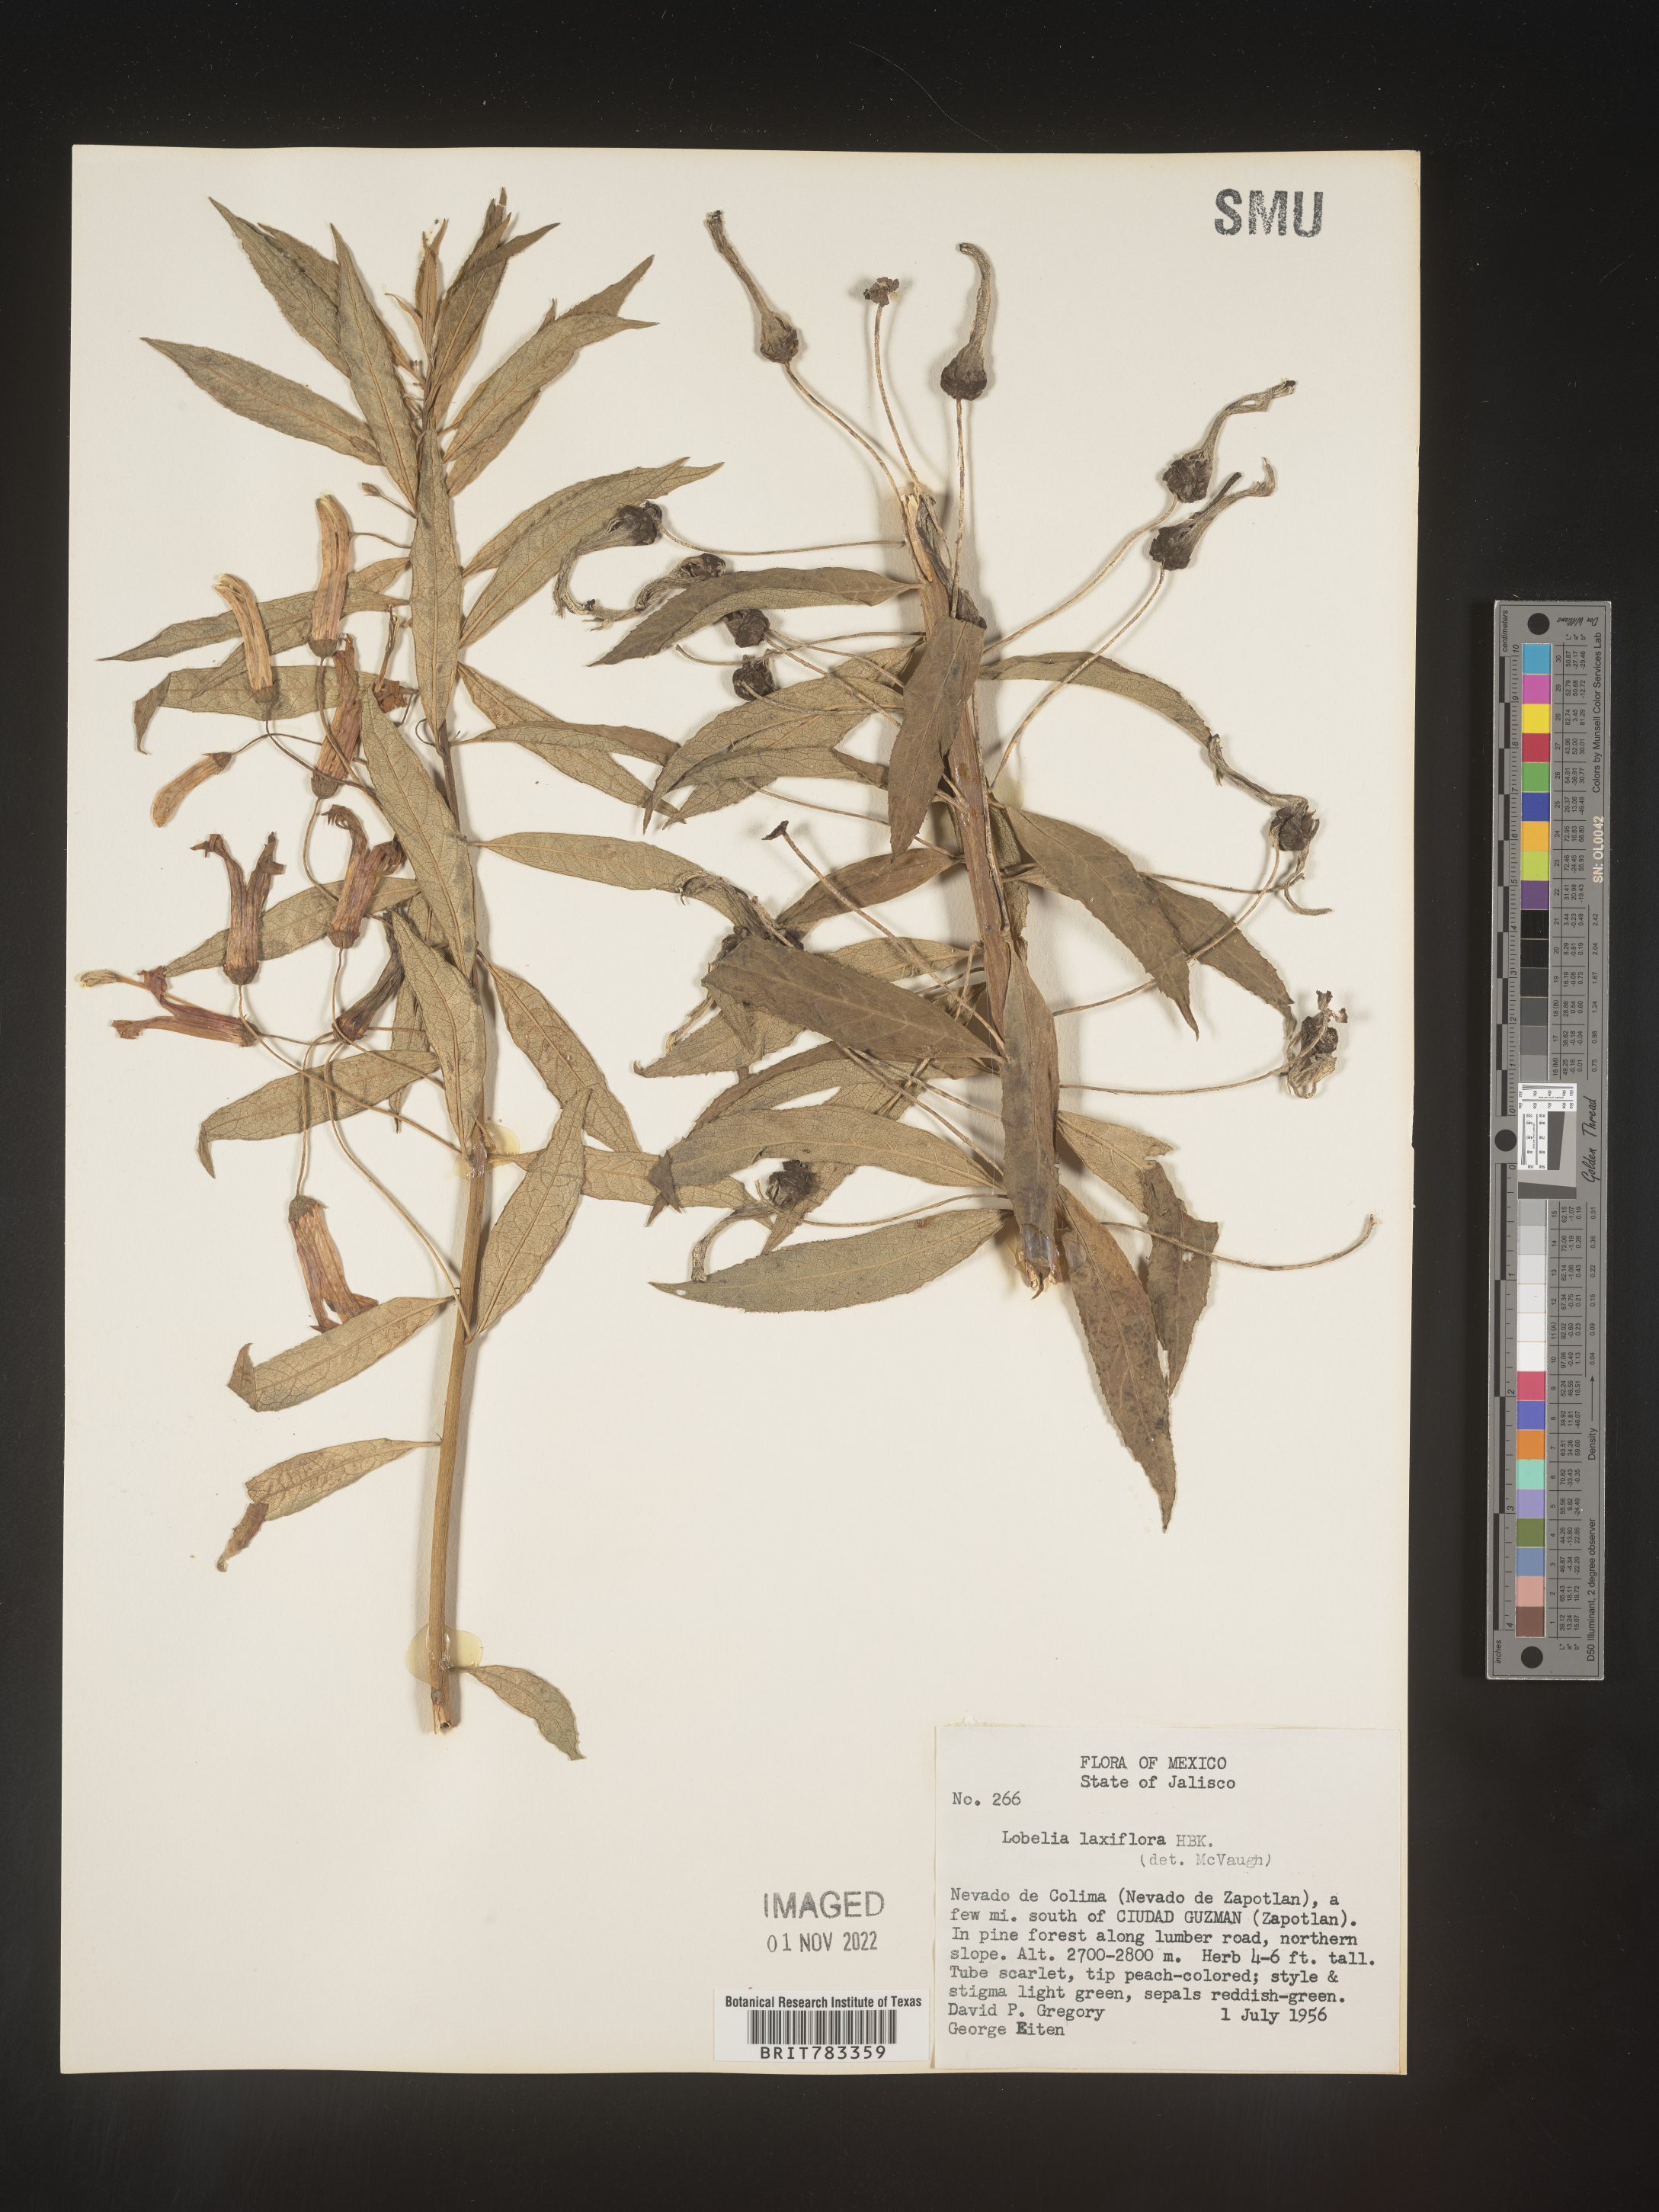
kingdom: Plantae
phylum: Tracheophyta
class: Magnoliopsida
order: Asterales
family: Campanulaceae
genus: Lobelia
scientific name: Lobelia
